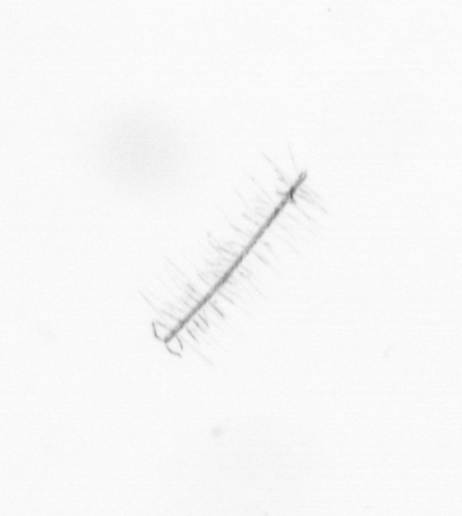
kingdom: Chromista
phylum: Ochrophyta
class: Bacillariophyceae
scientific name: Bacillariophyceae
